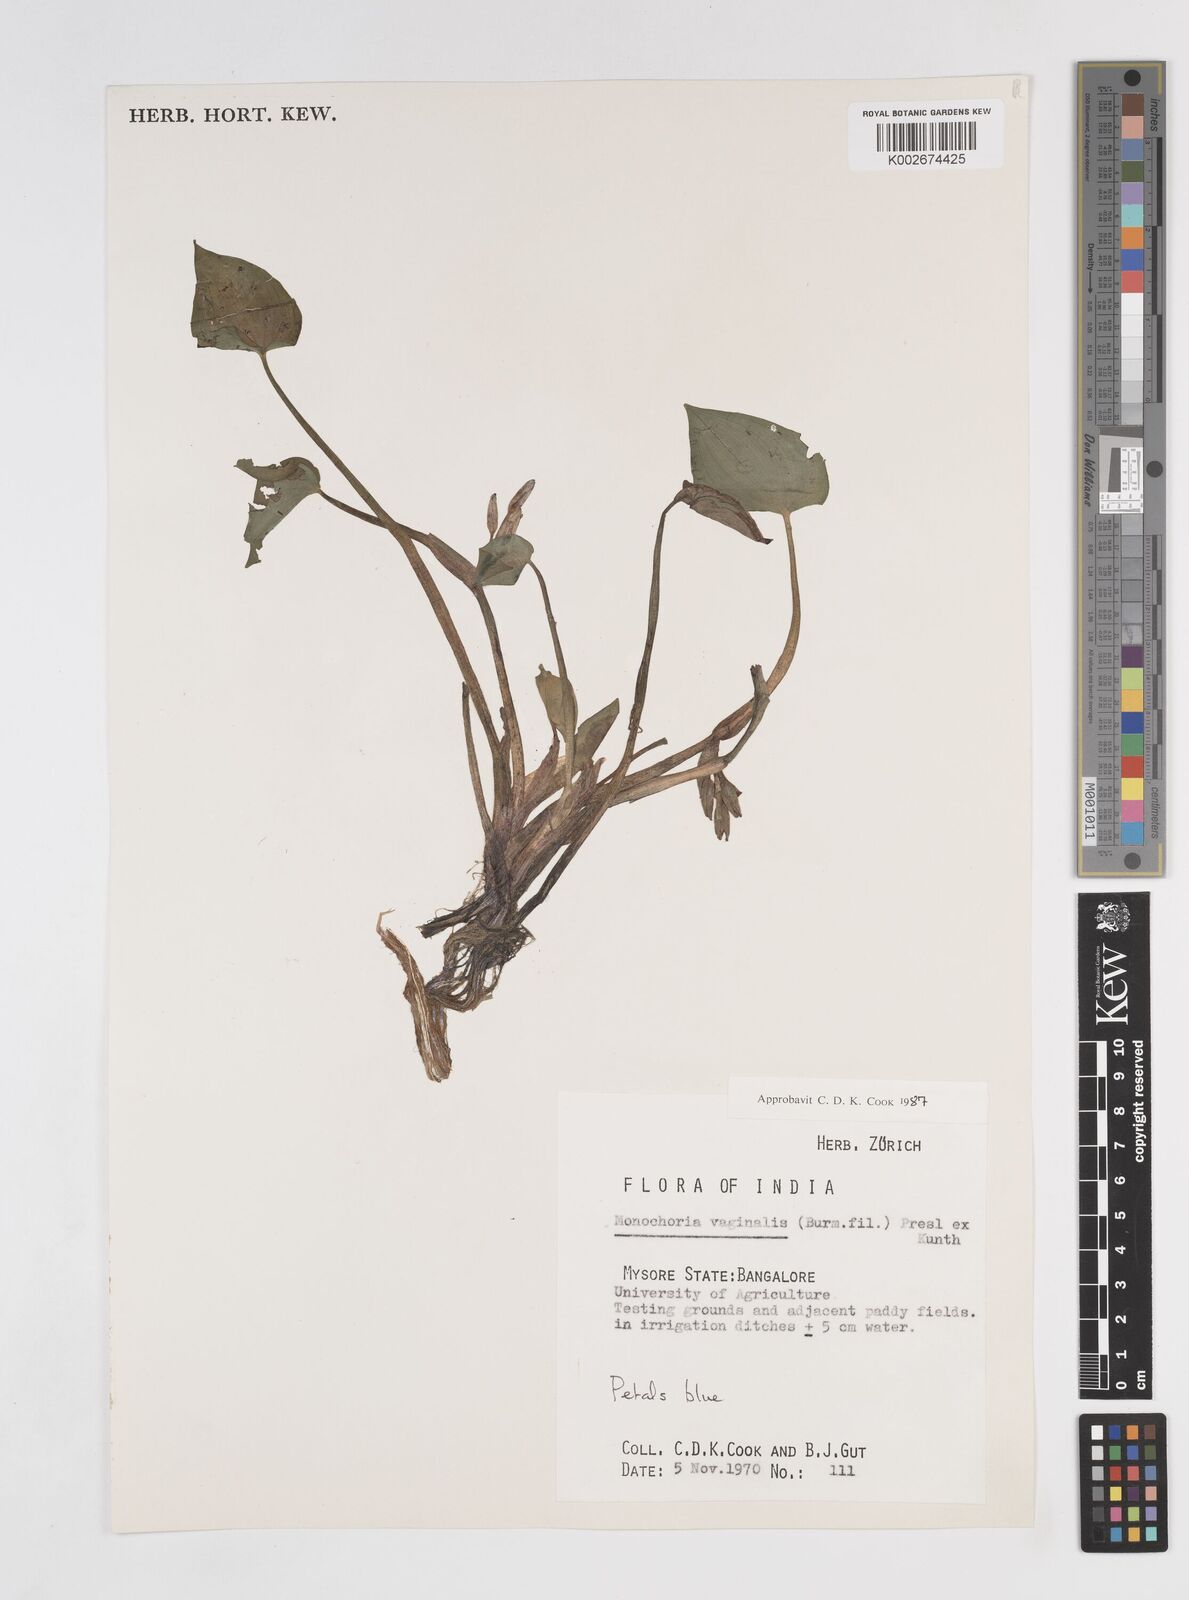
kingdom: Plantae
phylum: Tracheophyta
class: Liliopsida
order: Commelinales
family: Pontederiaceae
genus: Pontederia
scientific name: Pontederia vaginalis
